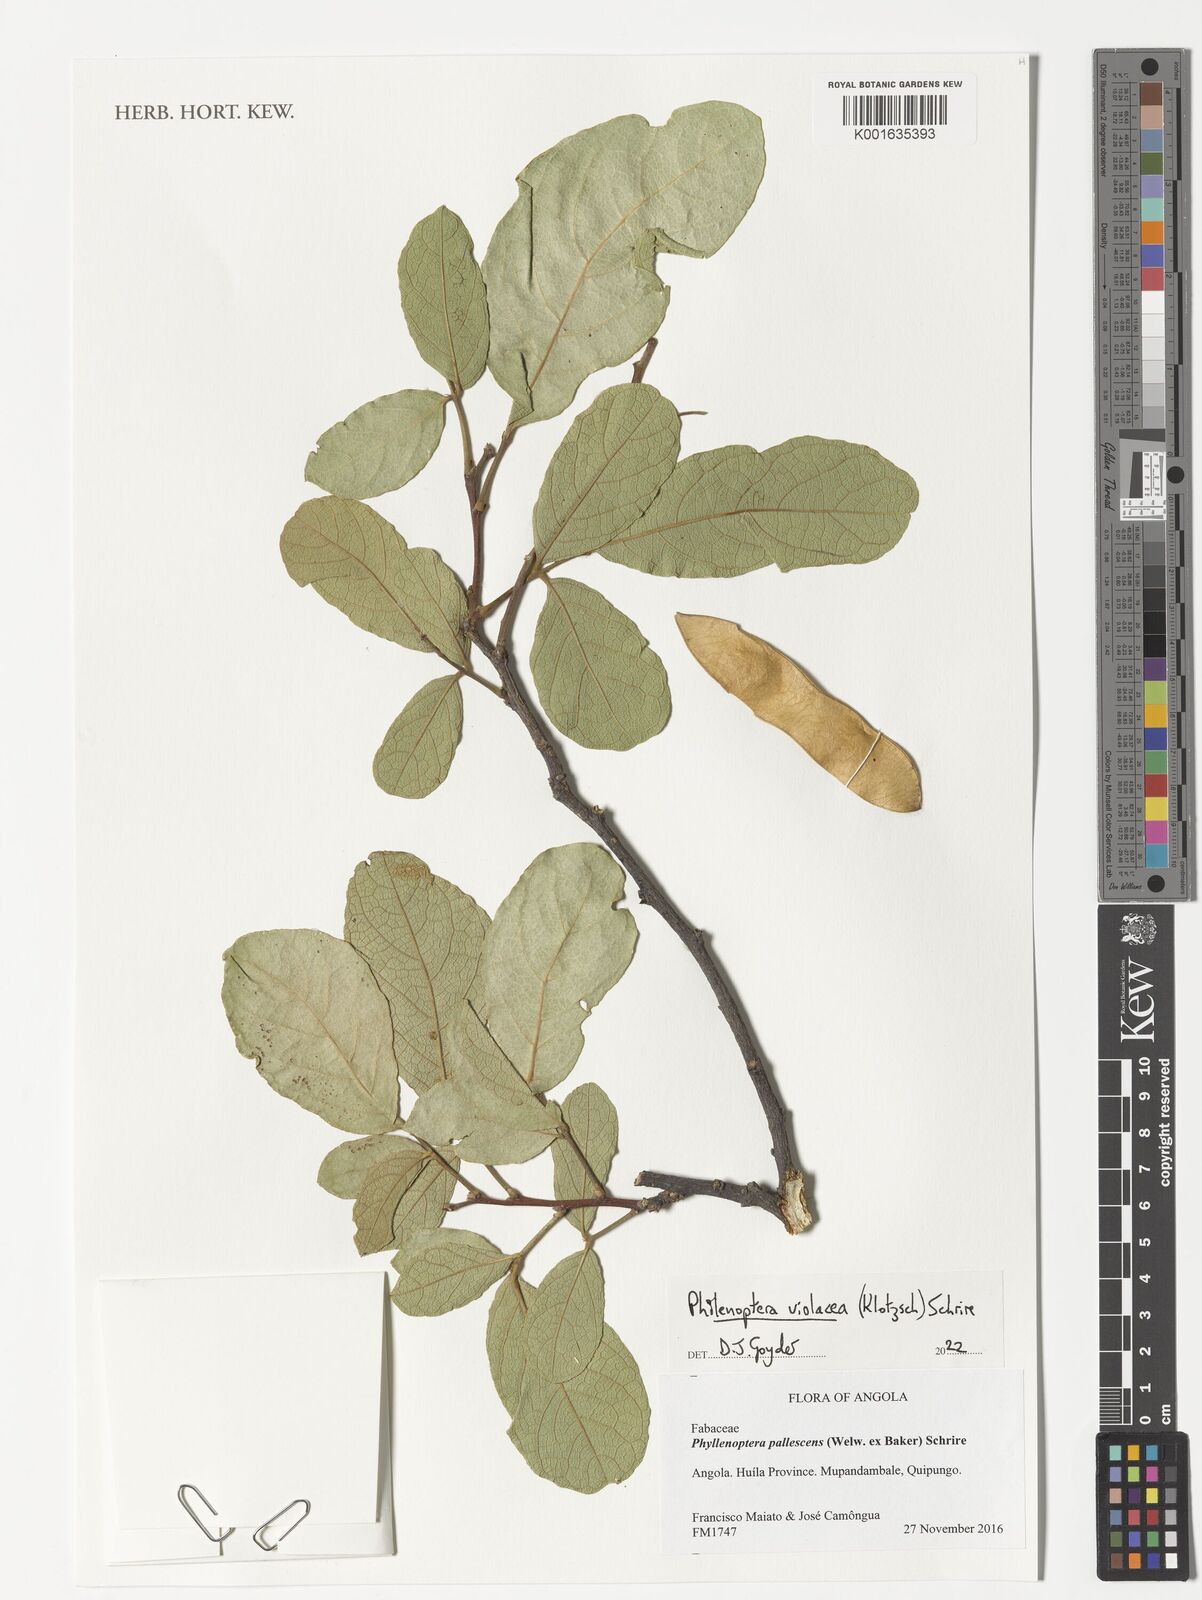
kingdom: Plantae
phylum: Tracheophyta
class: Magnoliopsida
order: Fabales
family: Fabaceae
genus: Philenoptera
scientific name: Philenoptera violacea
